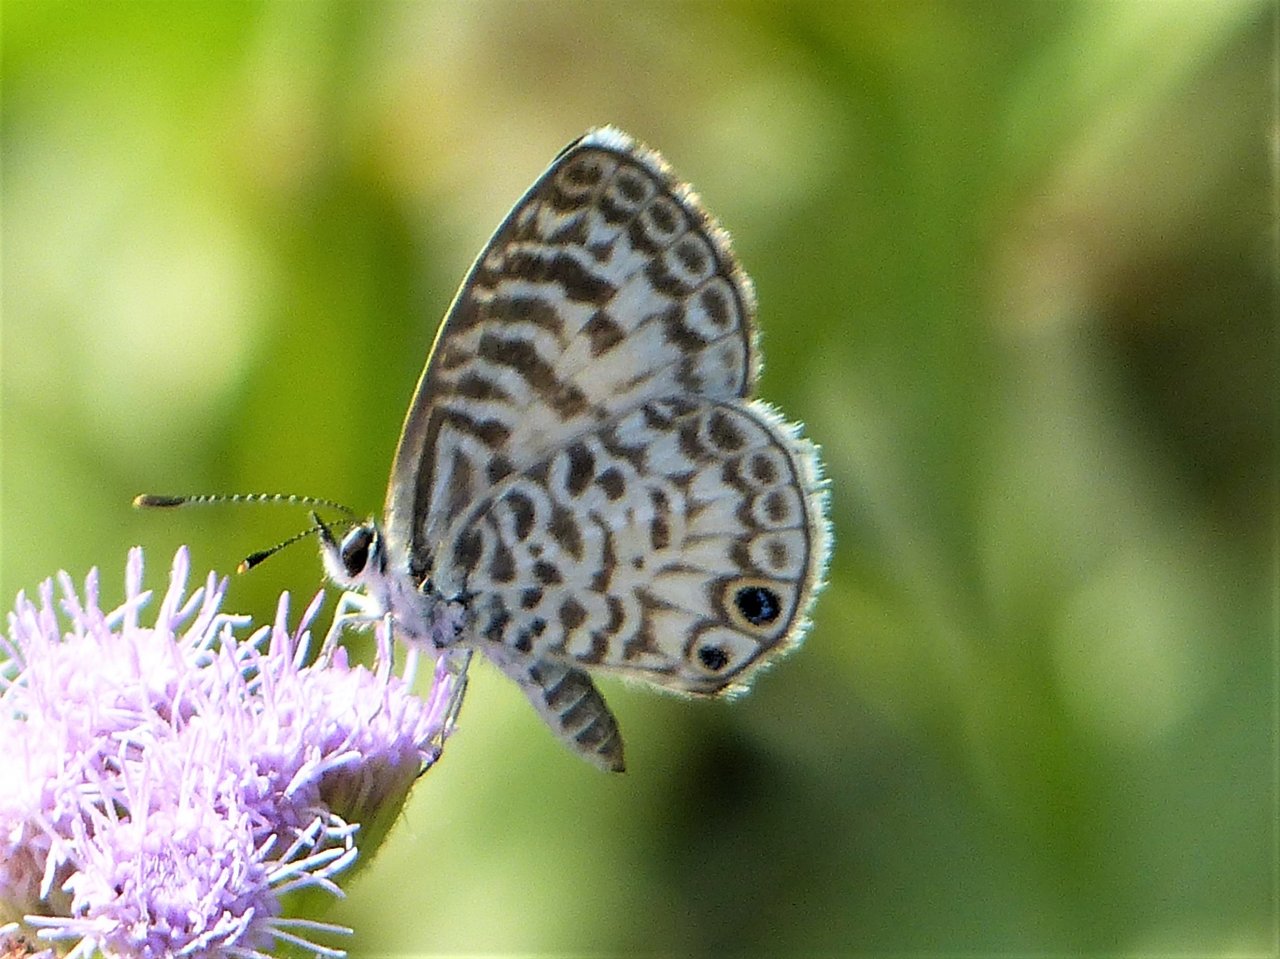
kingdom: Animalia
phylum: Arthropoda
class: Insecta
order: Lepidoptera
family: Lycaenidae
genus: Leptotes
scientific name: Leptotes cassius
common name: Cassius Blue
